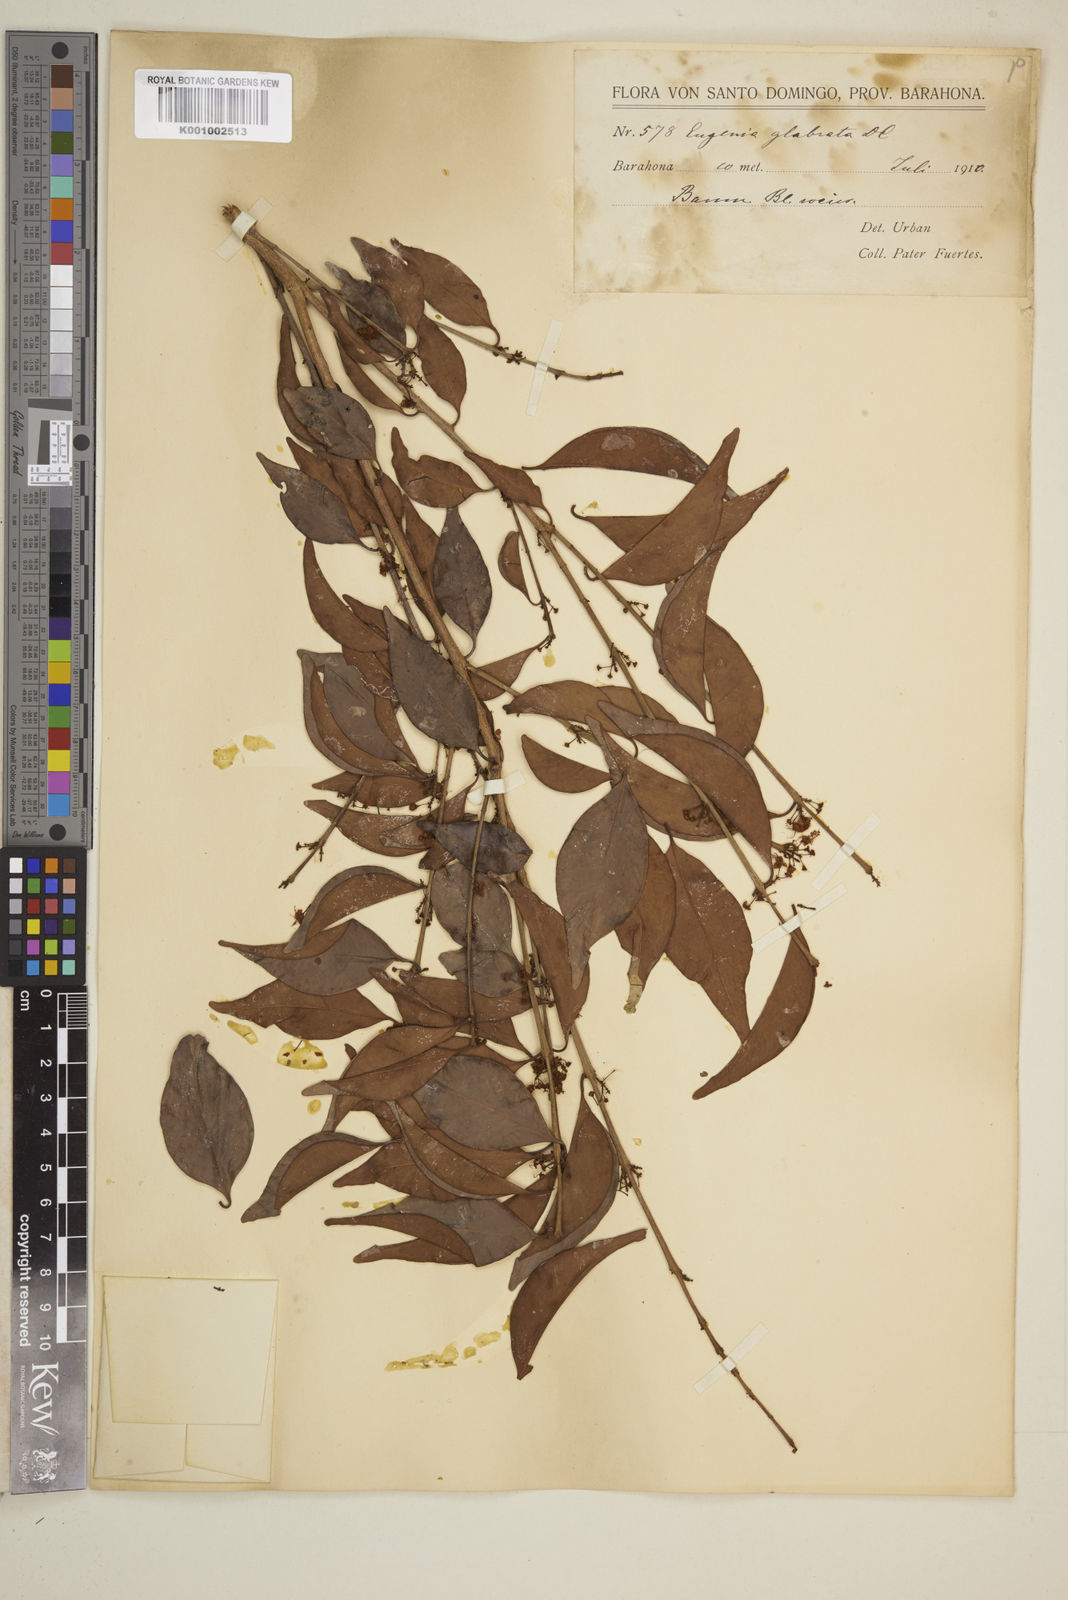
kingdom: Plantae
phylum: Tracheophyta
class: Magnoliopsida
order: Myrtales
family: Myrtaceae
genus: Eugenia
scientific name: Eugenia glabrata
